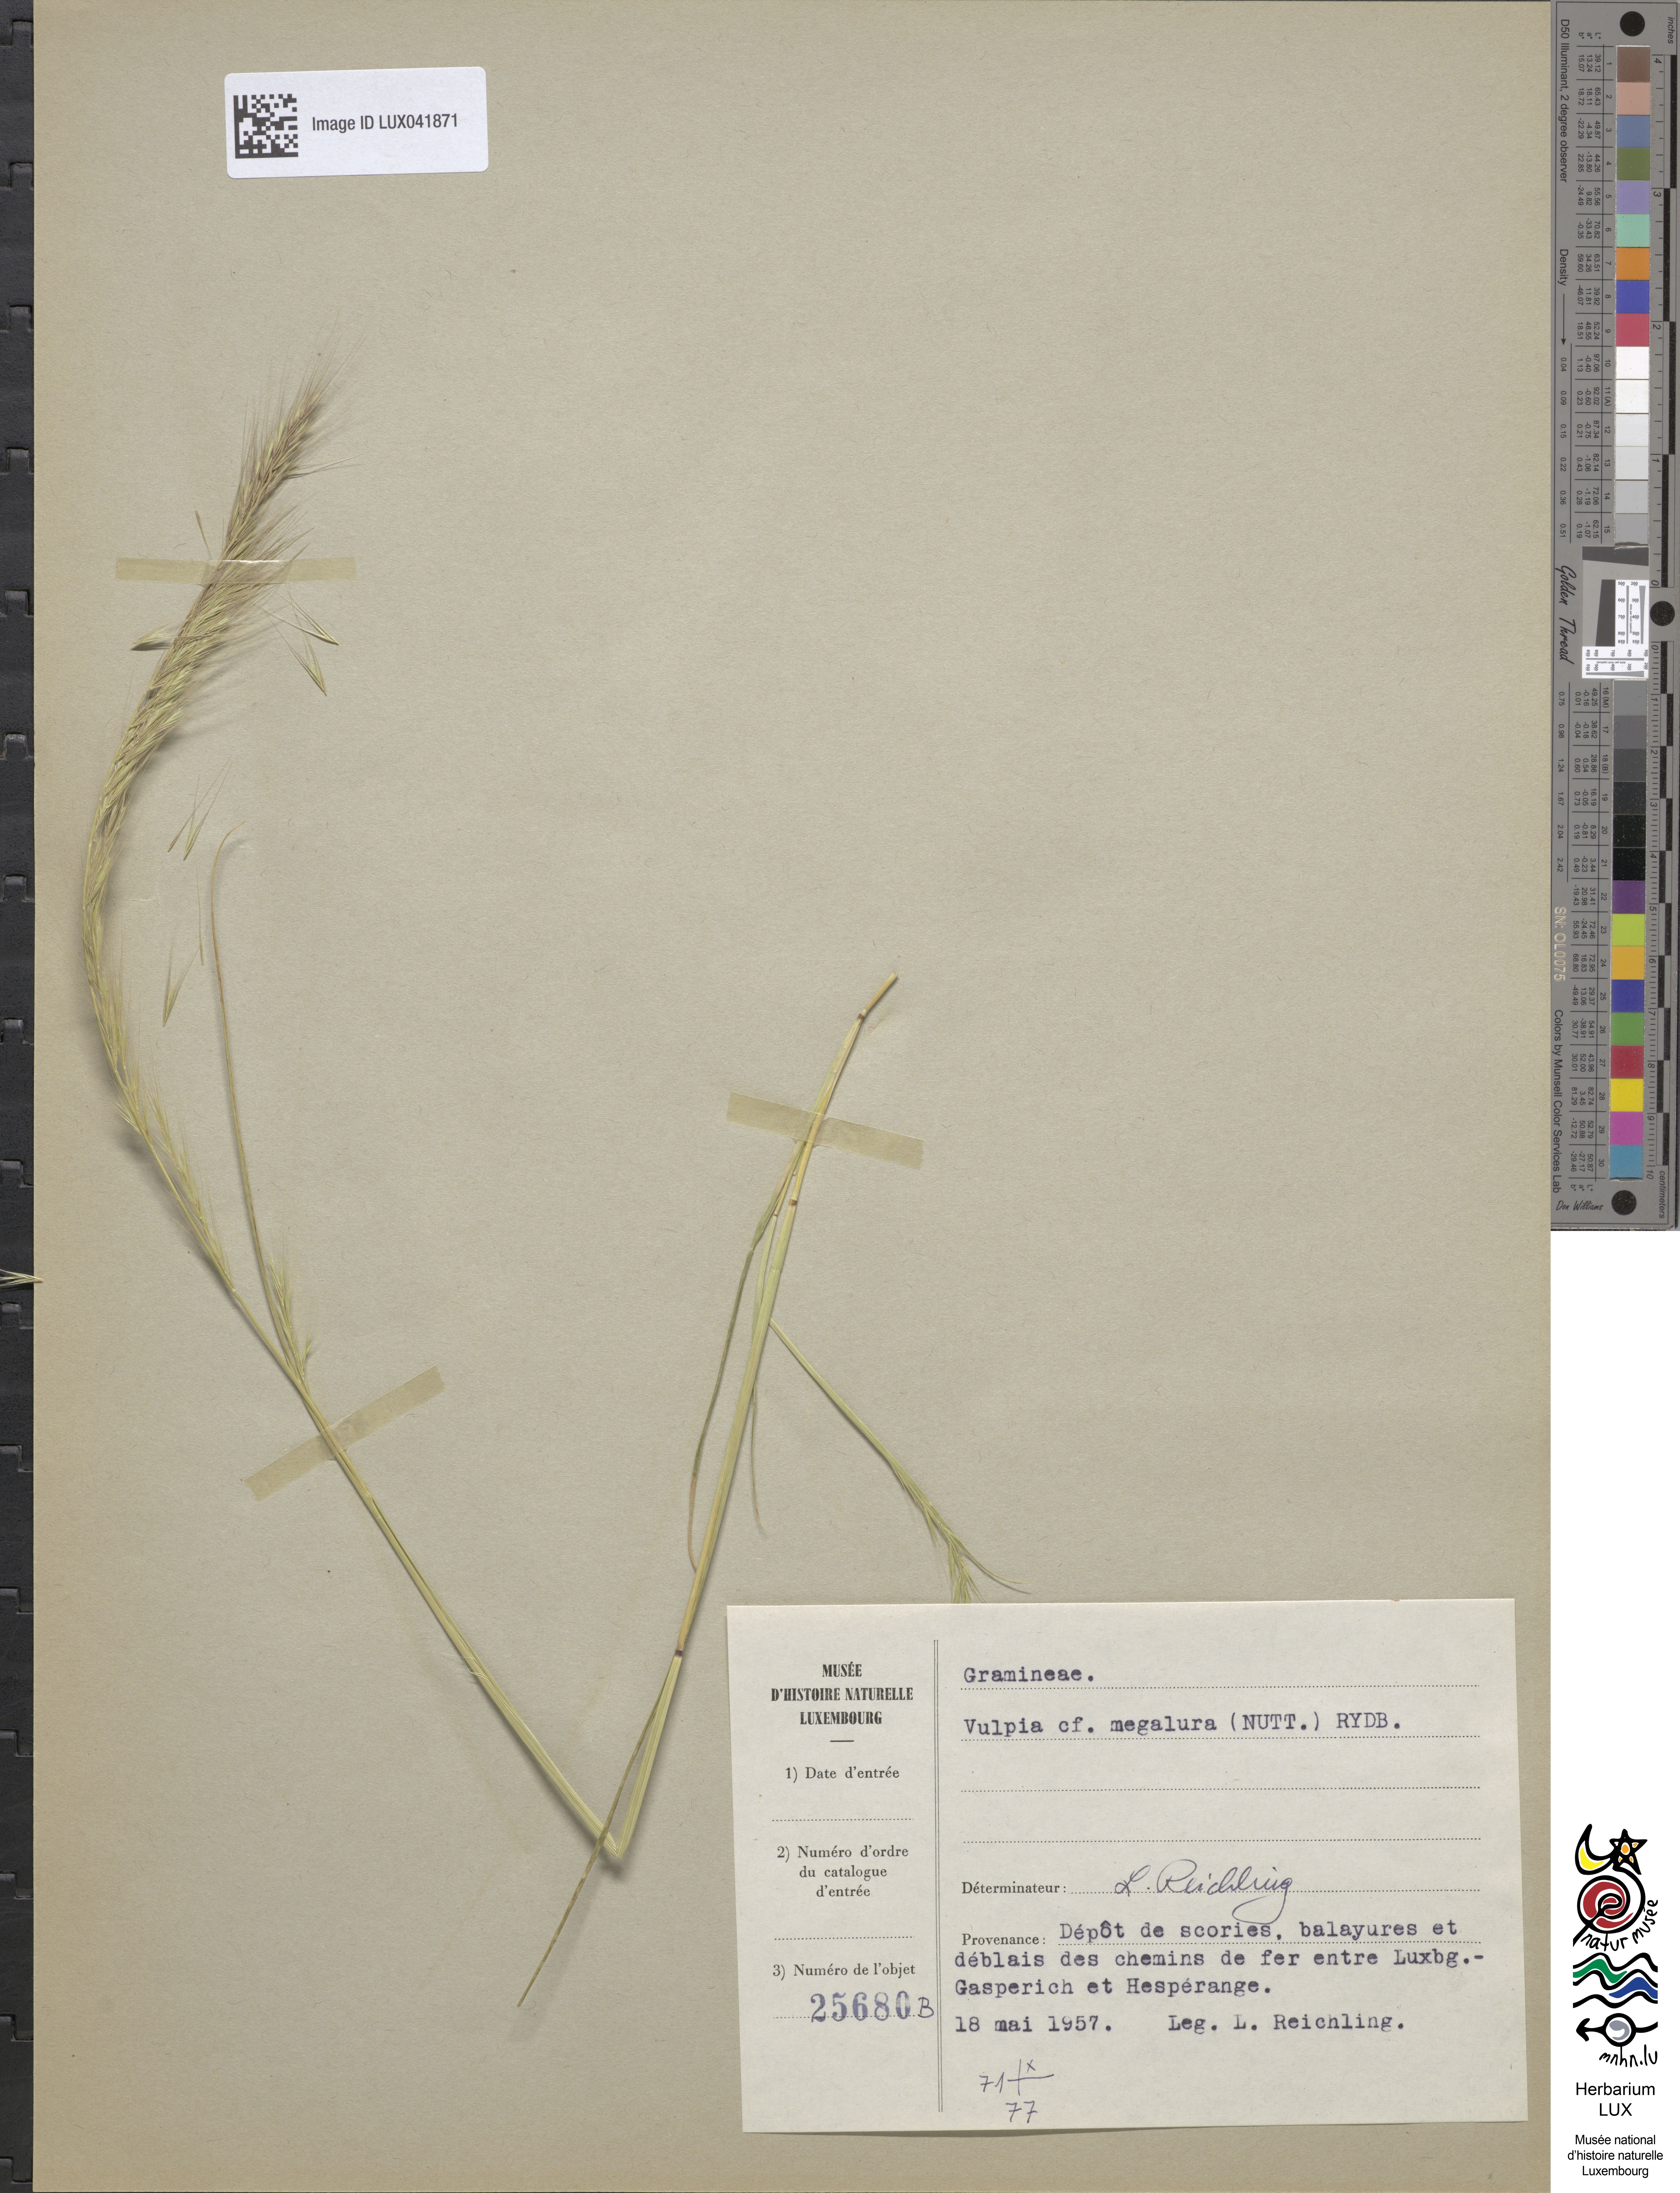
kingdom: Plantae
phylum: Tracheophyta
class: Liliopsida
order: Poales
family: Poaceae
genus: Festuca
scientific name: Festuca myuros
